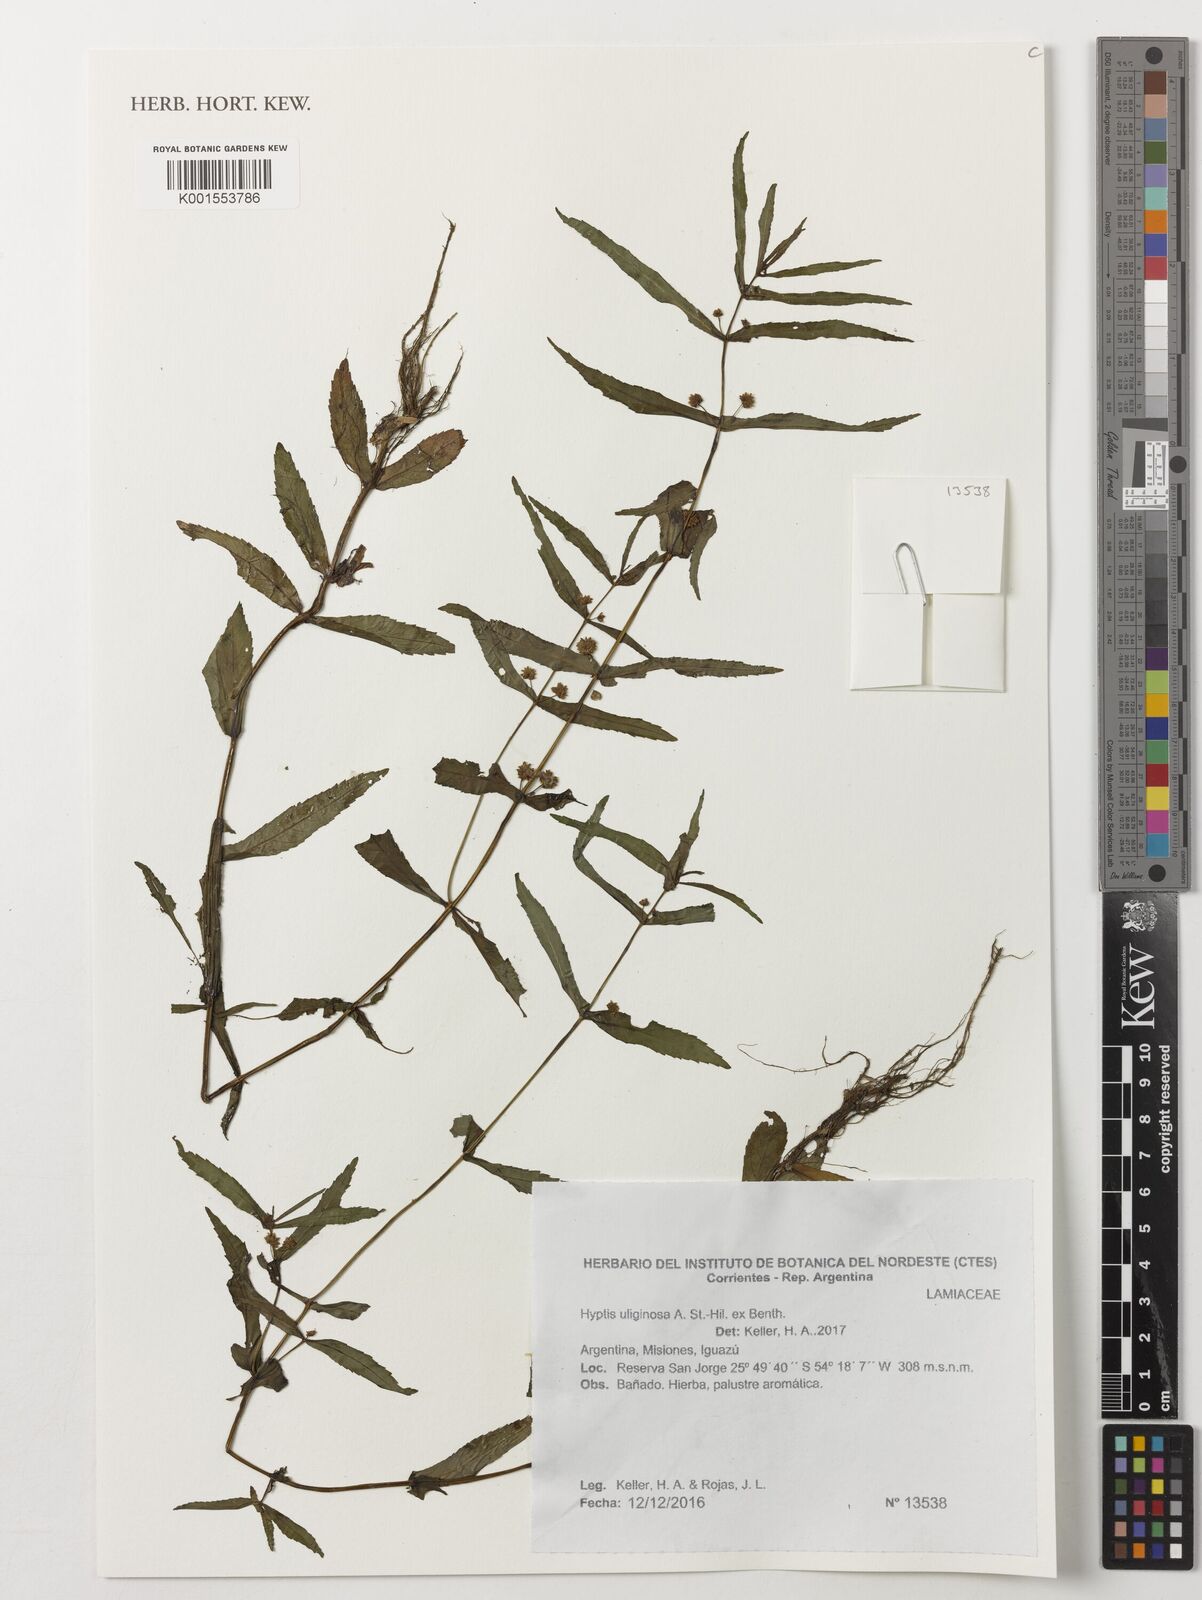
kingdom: Plantae
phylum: Tracheophyta
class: Magnoliopsida
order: Lamiales
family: Lamiaceae
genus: Hyptis
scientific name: Hyptis uliginosa
